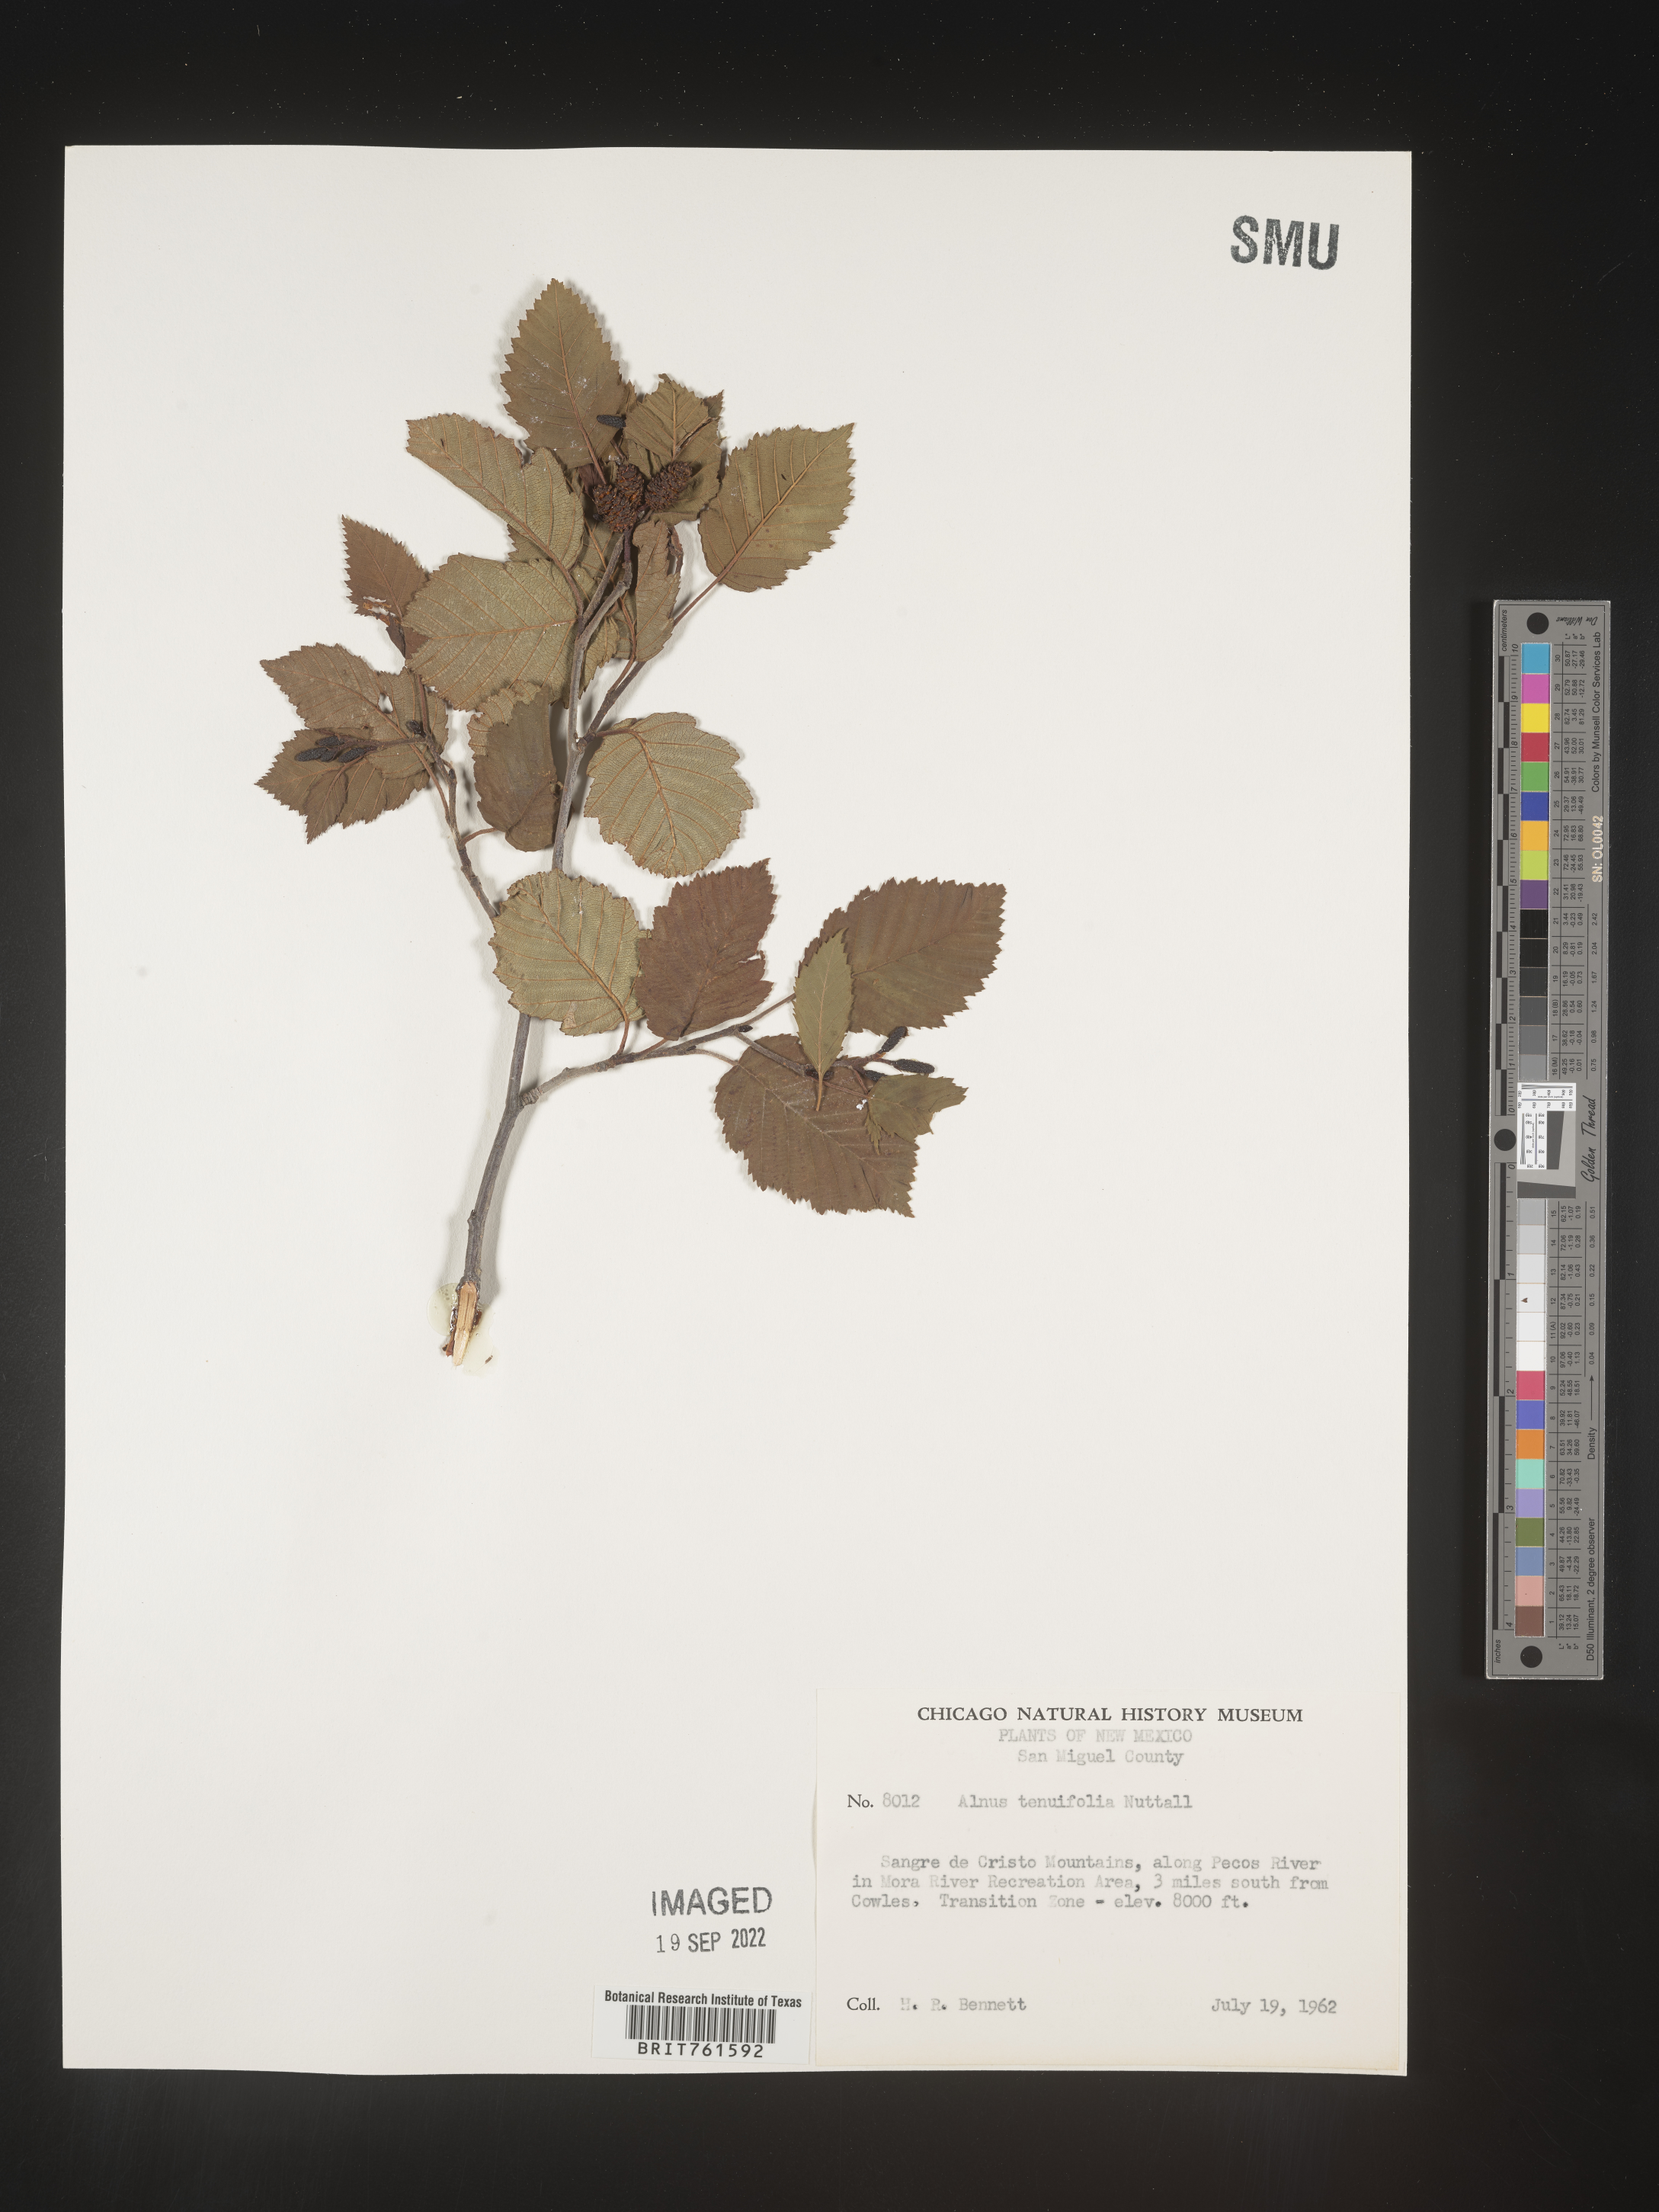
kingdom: Plantae
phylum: Tracheophyta
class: Magnoliopsida
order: Fagales
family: Betulaceae
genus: Alnus
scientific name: Alnus incana
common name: Grey alder
